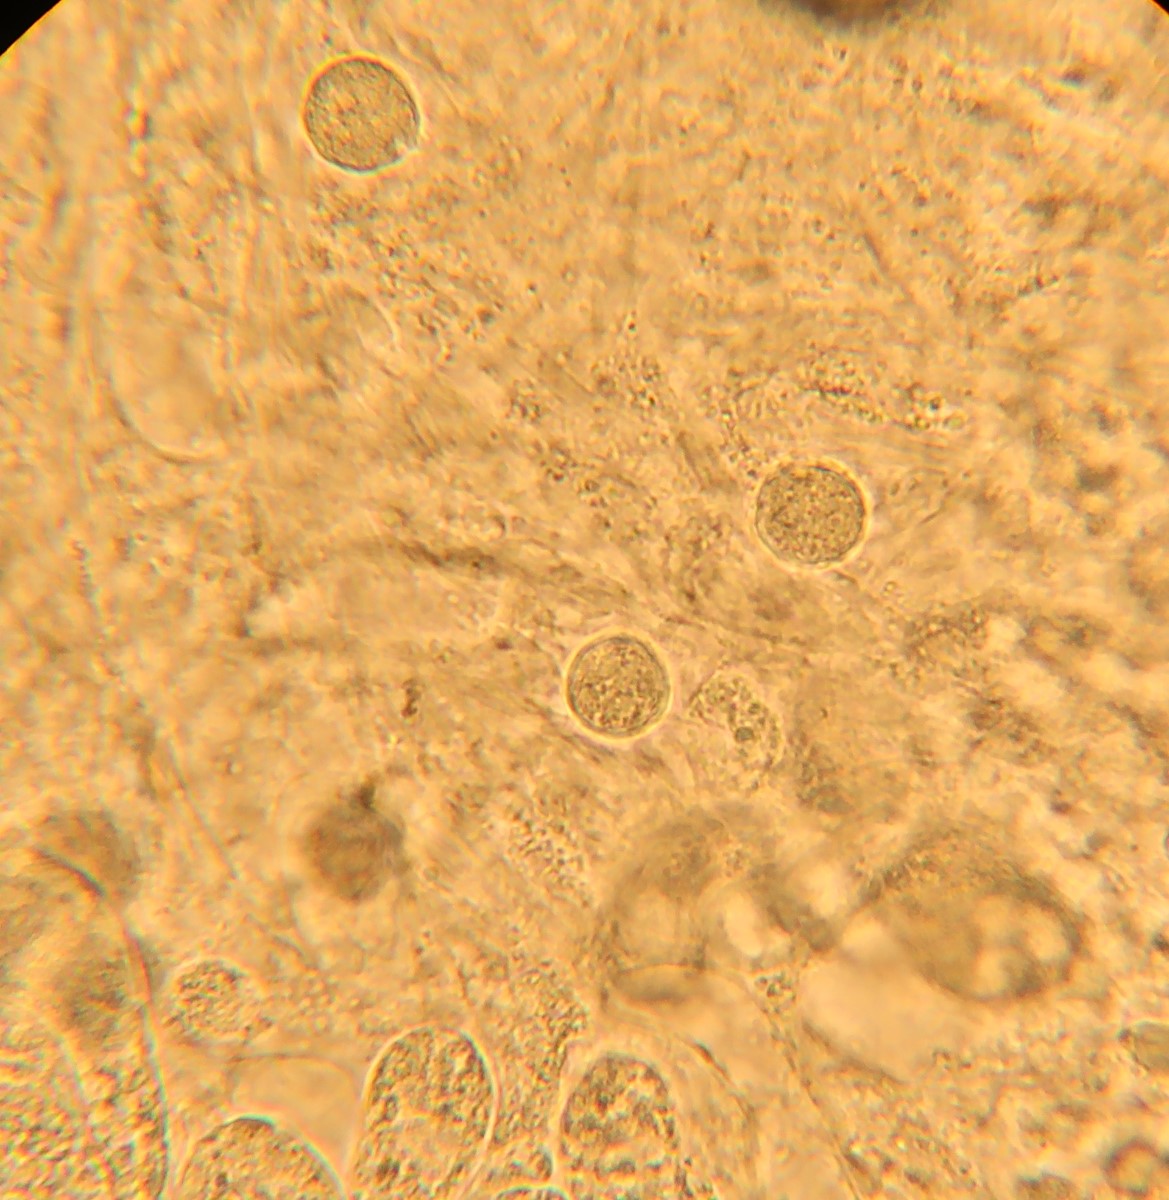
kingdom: Fungi
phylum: Basidiomycota
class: Agaricomycetes
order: Agaricales
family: Amanitaceae
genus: Amanita
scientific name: Amanita
